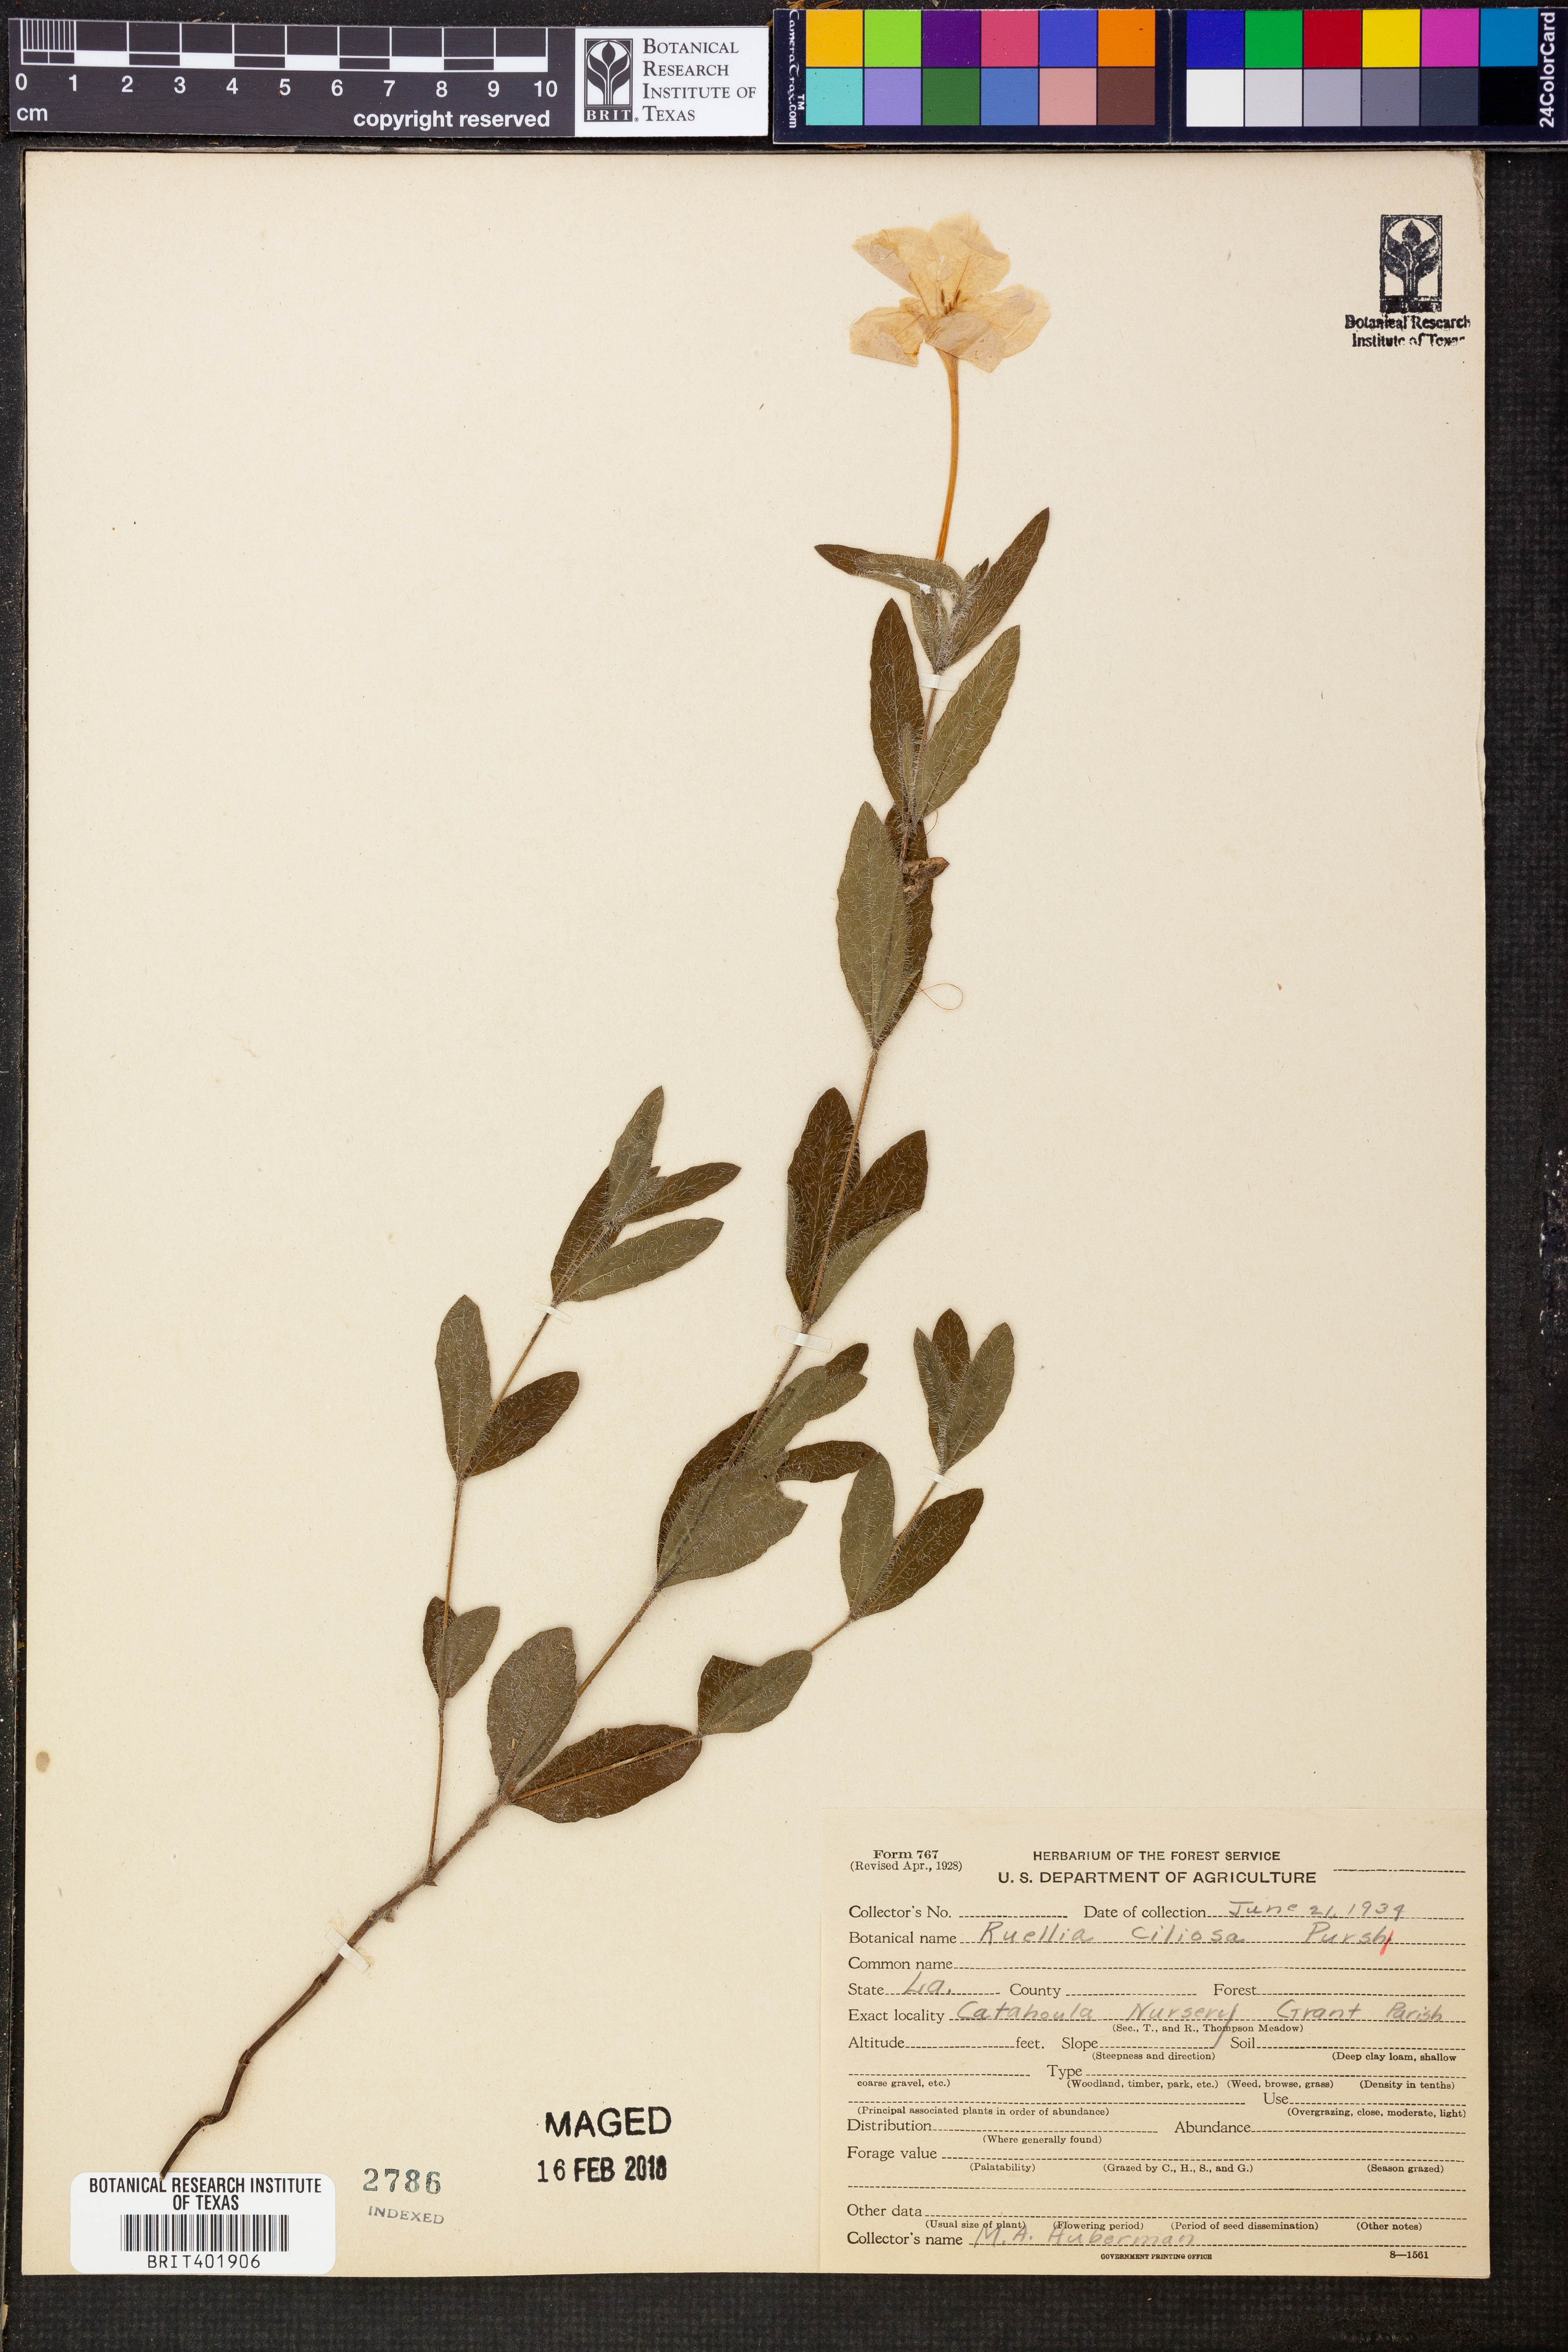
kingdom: Plantae
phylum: Tracheophyta
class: Magnoliopsida
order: Lamiales
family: Acanthaceae
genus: Ruellia
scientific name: Ruellia caroliniensis
